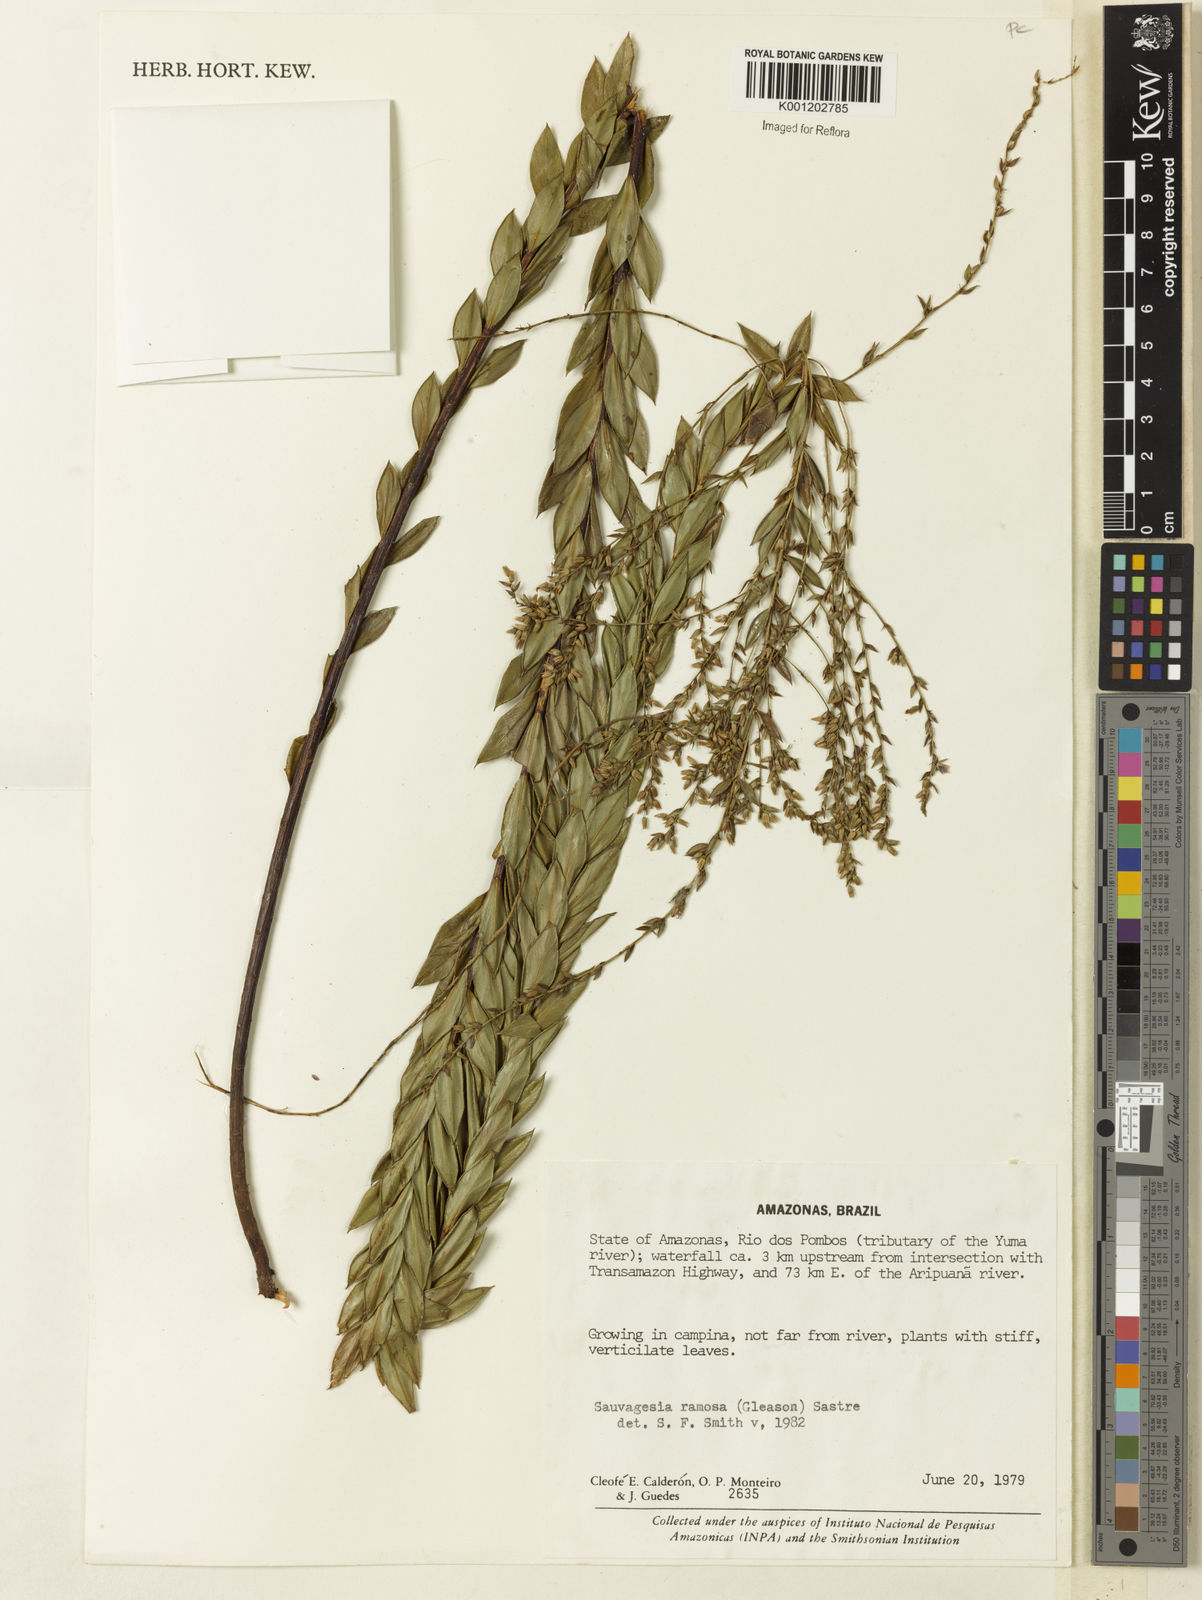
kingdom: Plantae
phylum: Tracheophyta
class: Magnoliopsida
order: Malpighiales
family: Ochnaceae
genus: Sauvagesia
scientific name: Sauvagesia ramosa
